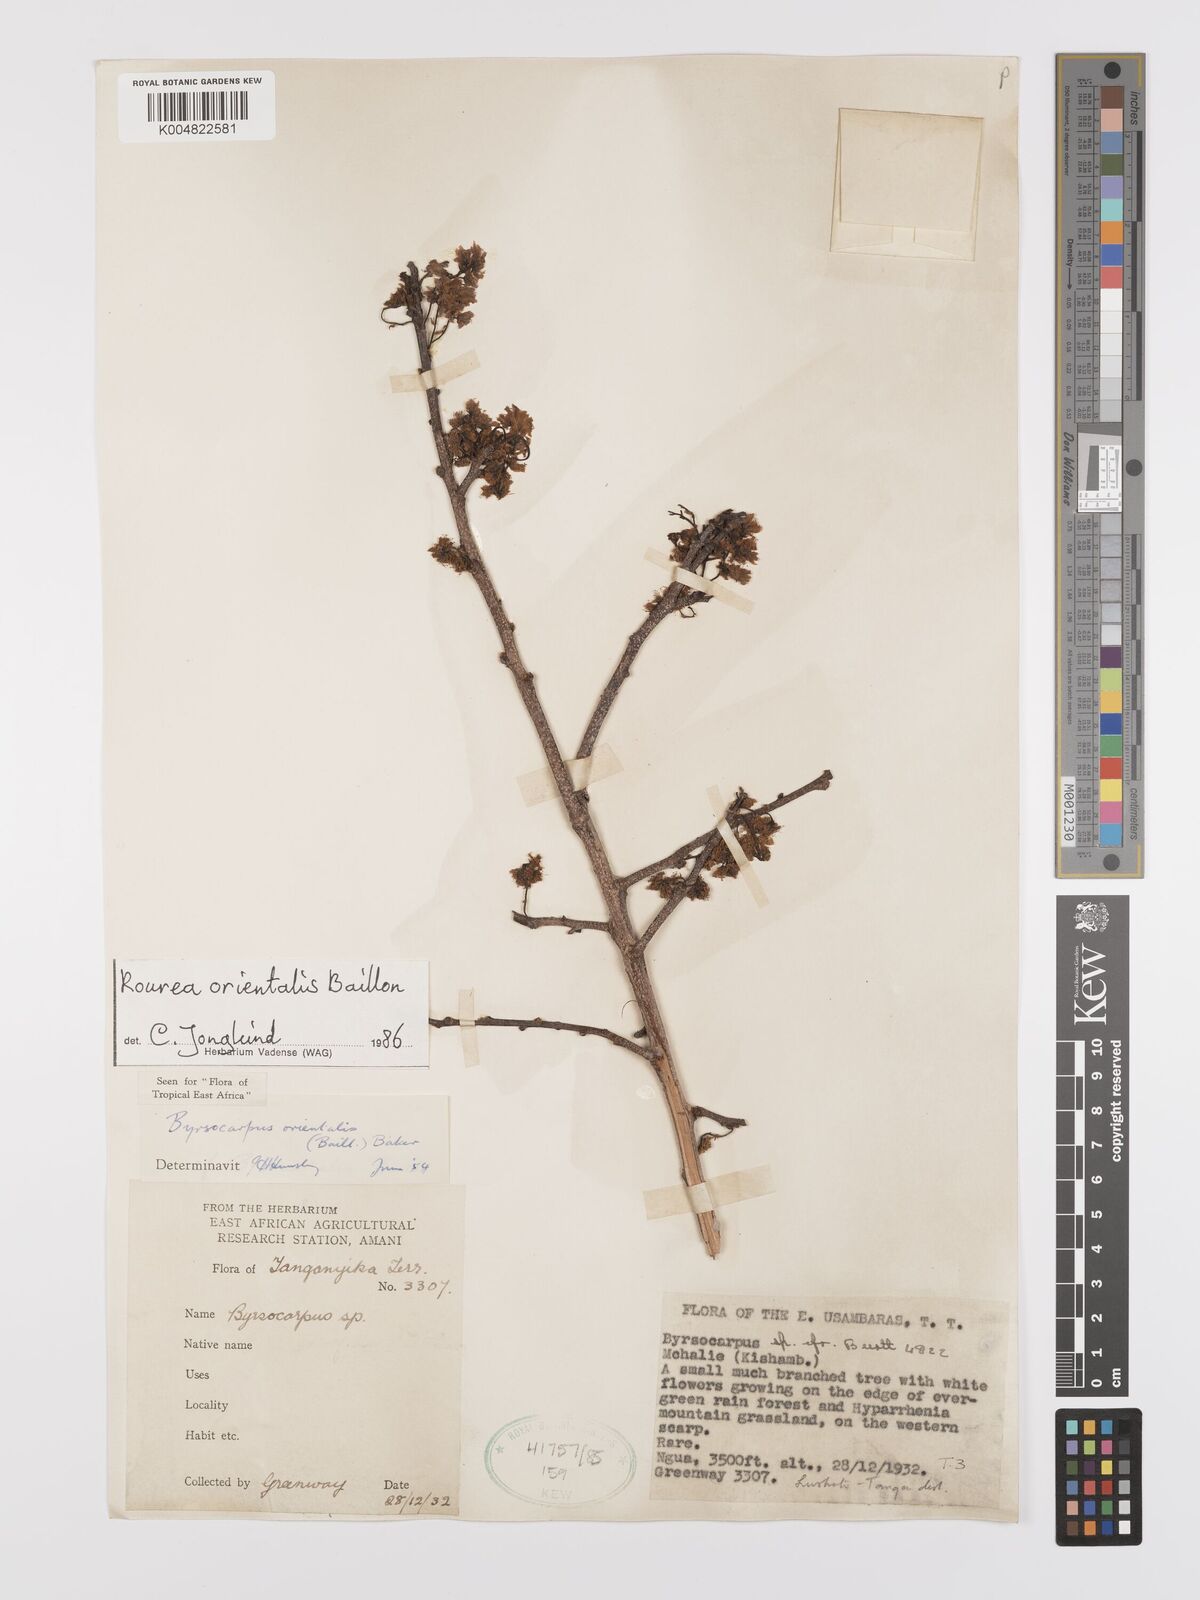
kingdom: Plantae
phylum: Tracheophyta
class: Magnoliopsida
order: Oxalidales
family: Connaraceae
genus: Rourea
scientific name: Rourea orientalis
